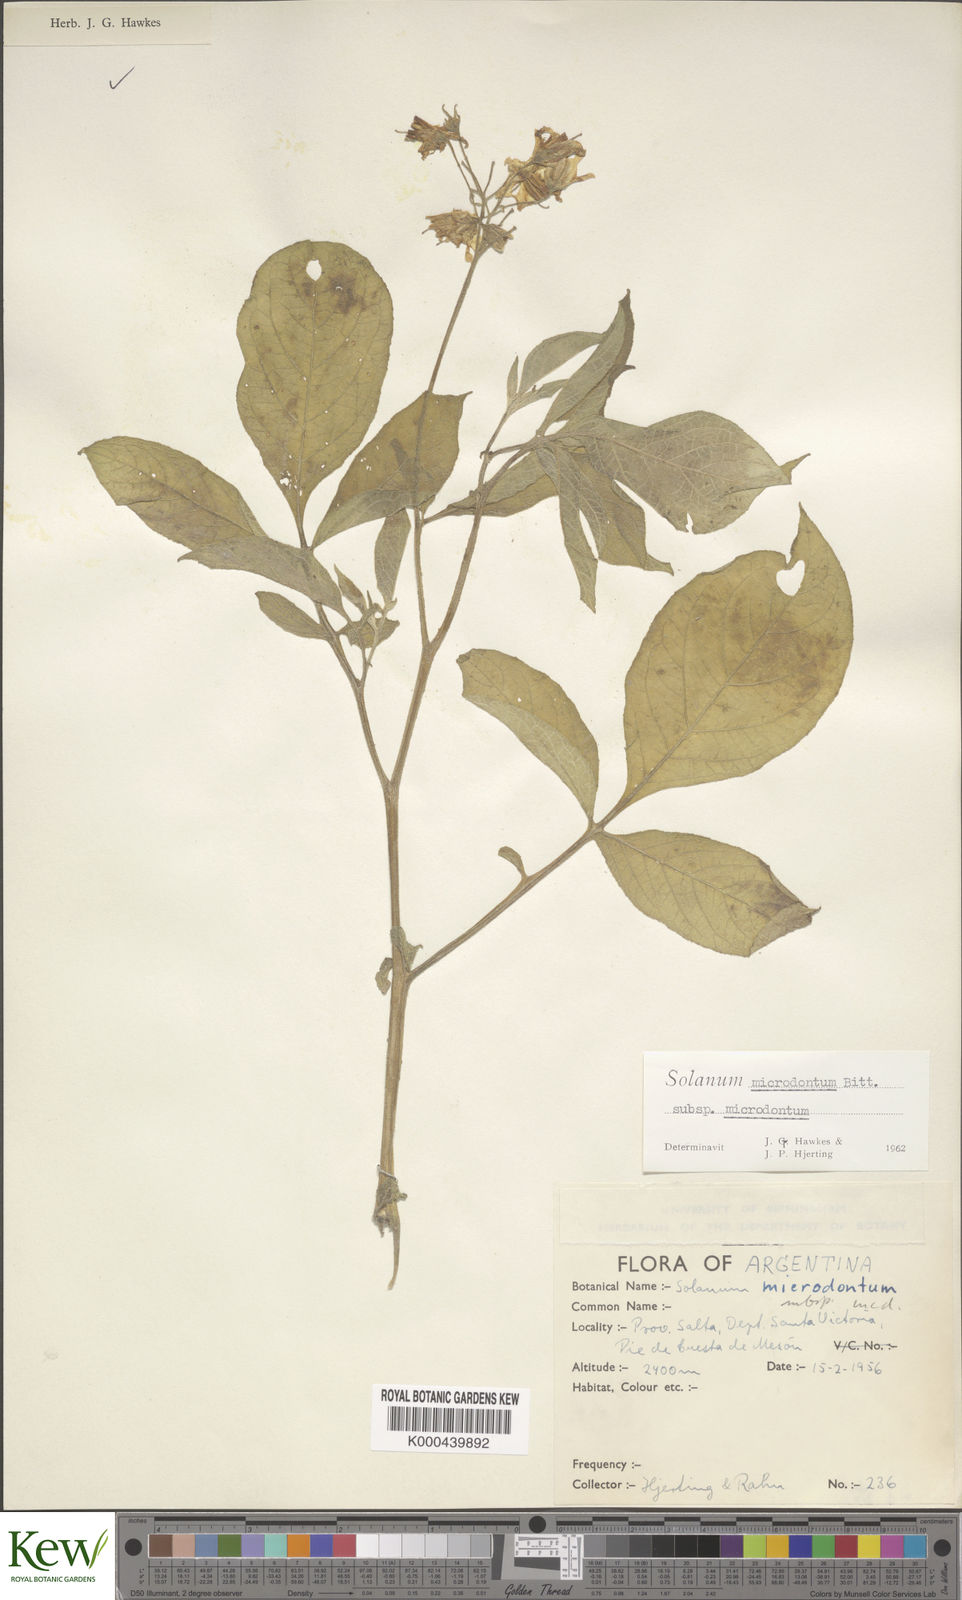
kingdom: Plantae
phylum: Tracheophyta
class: Magnoliopsida
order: Solanales
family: Solanaceae
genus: Solanum
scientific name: Solanum microdontum
